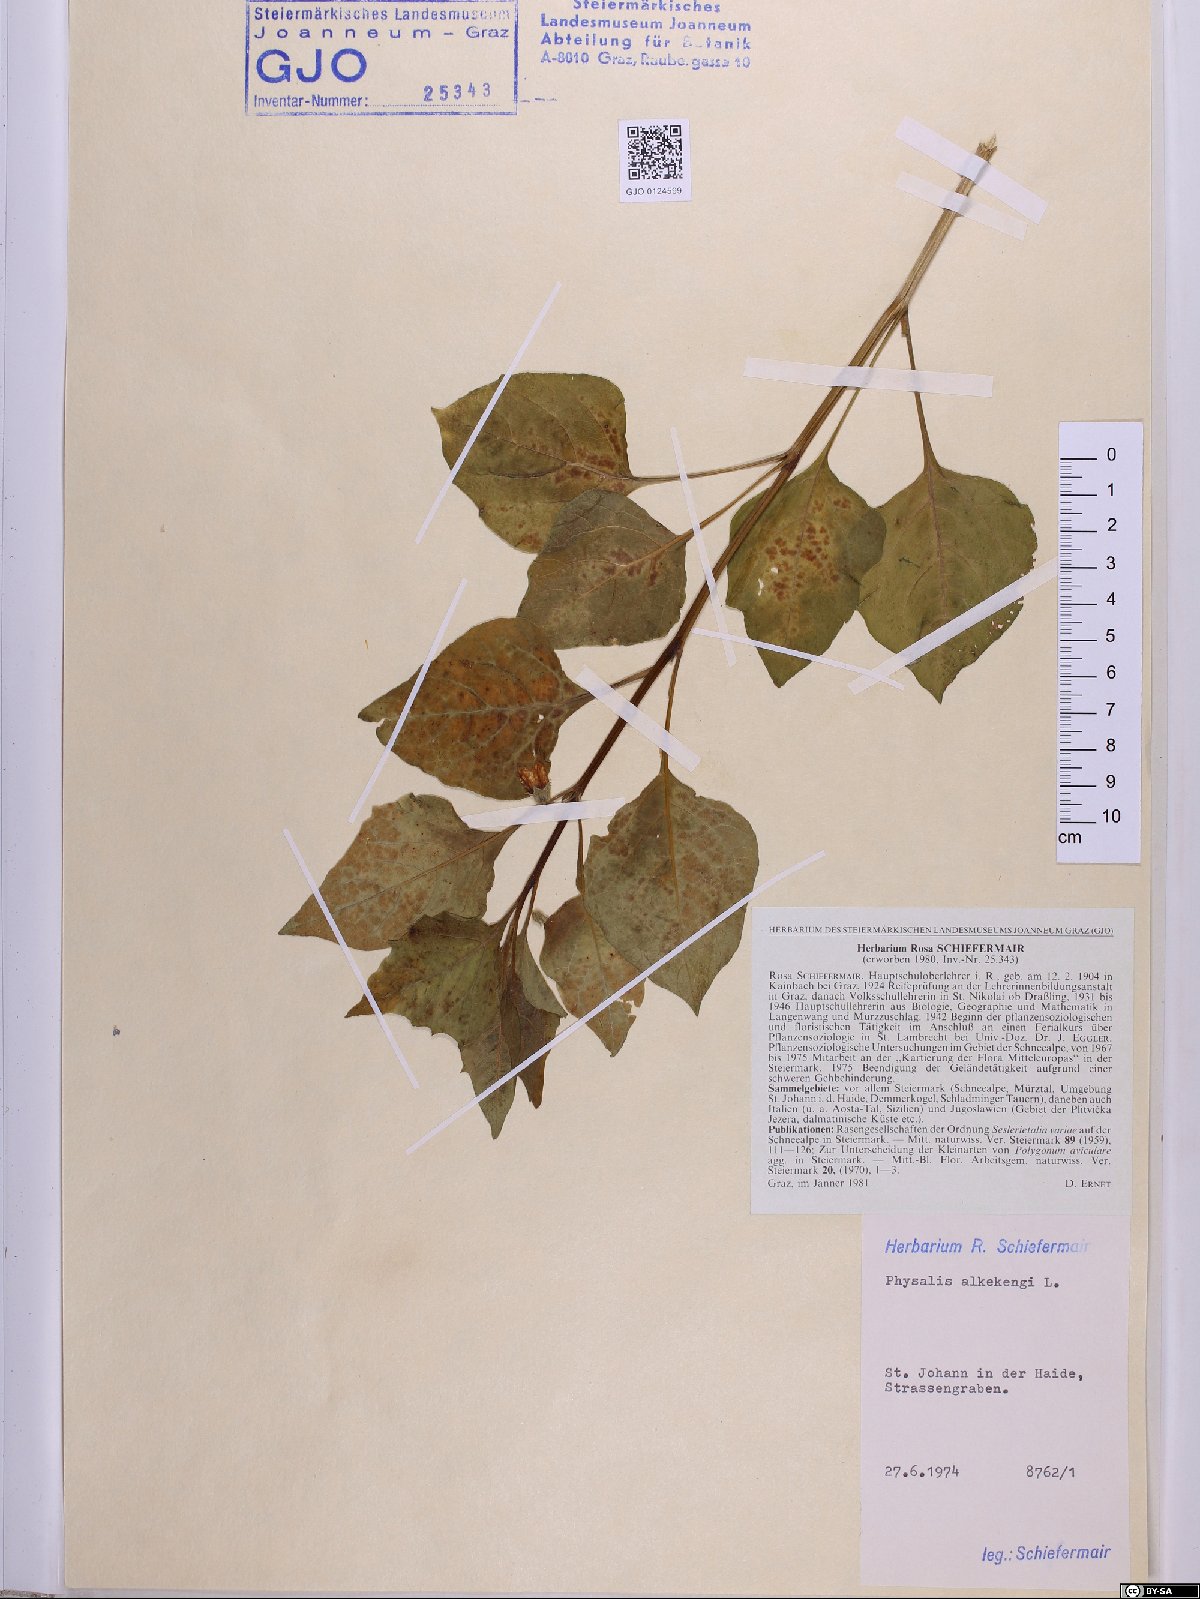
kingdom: Plantae
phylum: Tracheophyta
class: Magnoliopsida
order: Solanales
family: Solanaceae
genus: Alkekengi
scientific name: Alkekengi officinarum
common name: Japanese-lantern
